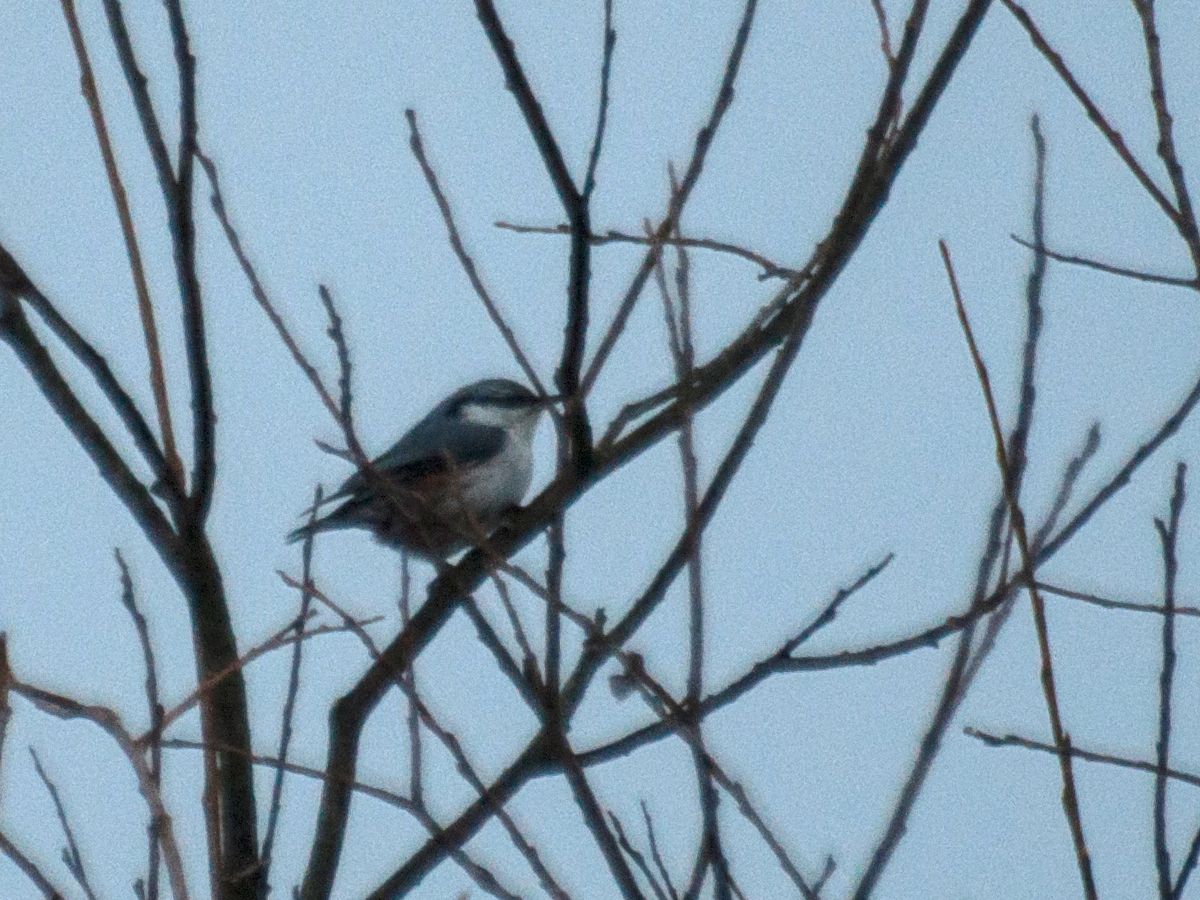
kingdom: Animalia
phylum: Chordata
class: Aves
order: Passeriformes
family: Sittidae
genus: Sitta
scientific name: Sitta europaea
